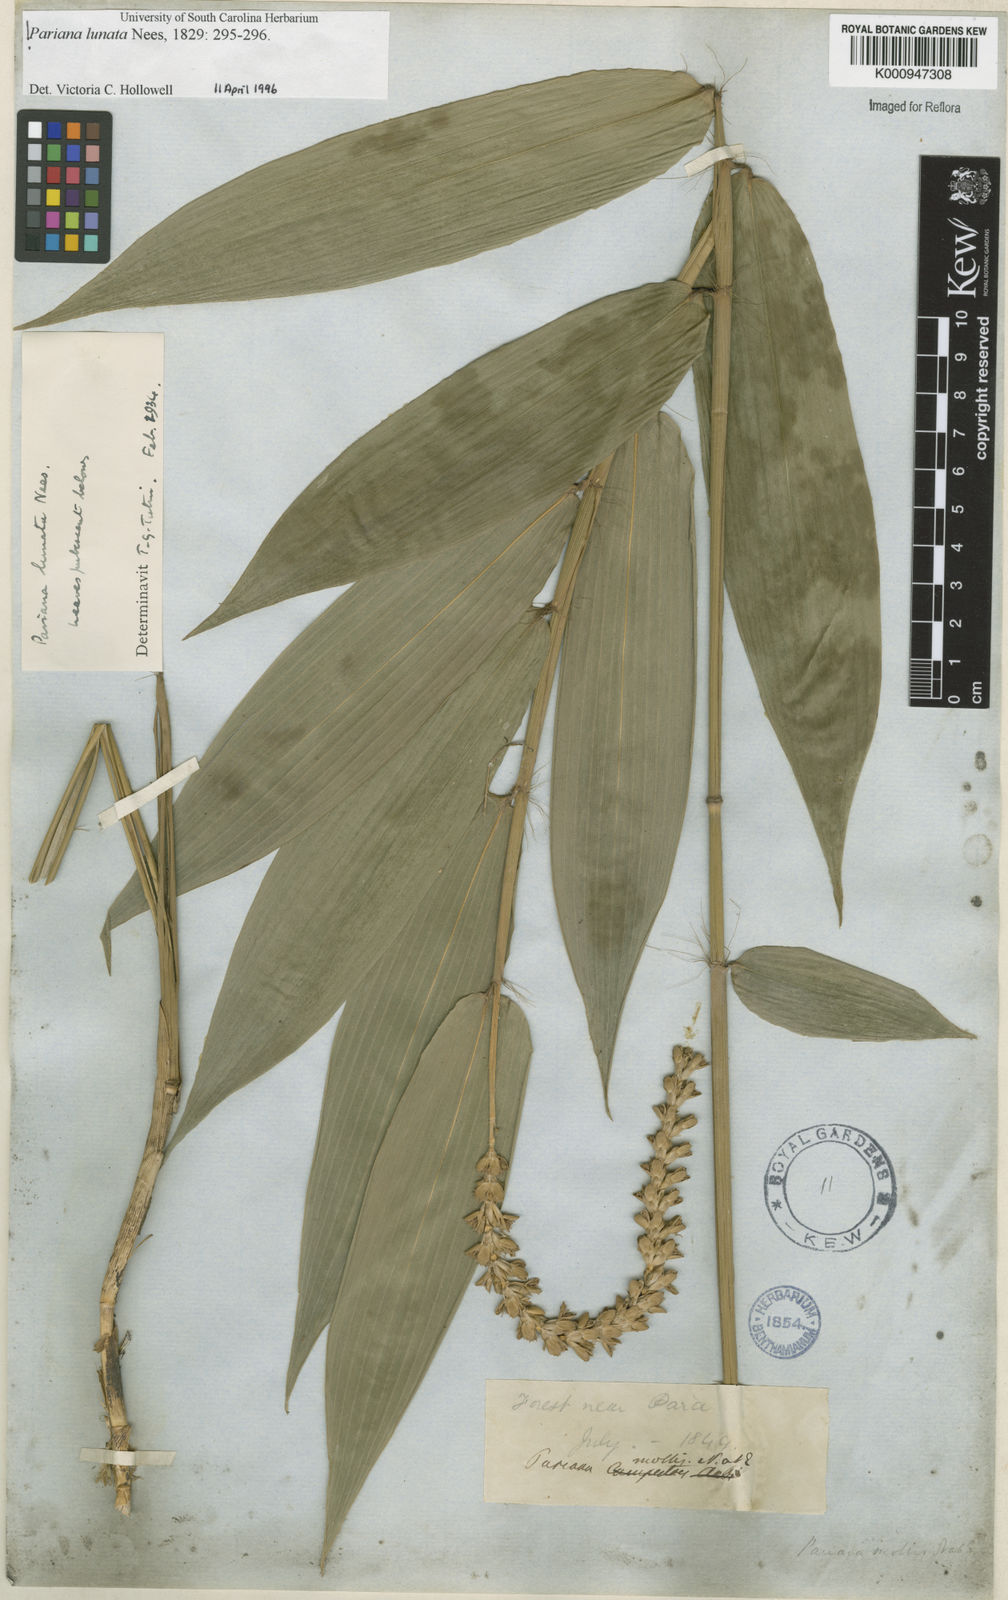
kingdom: Plantae
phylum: Tracheophyta
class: Liliopsida
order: Poales
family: Poaceae
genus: Pariana
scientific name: Pariana lunata
